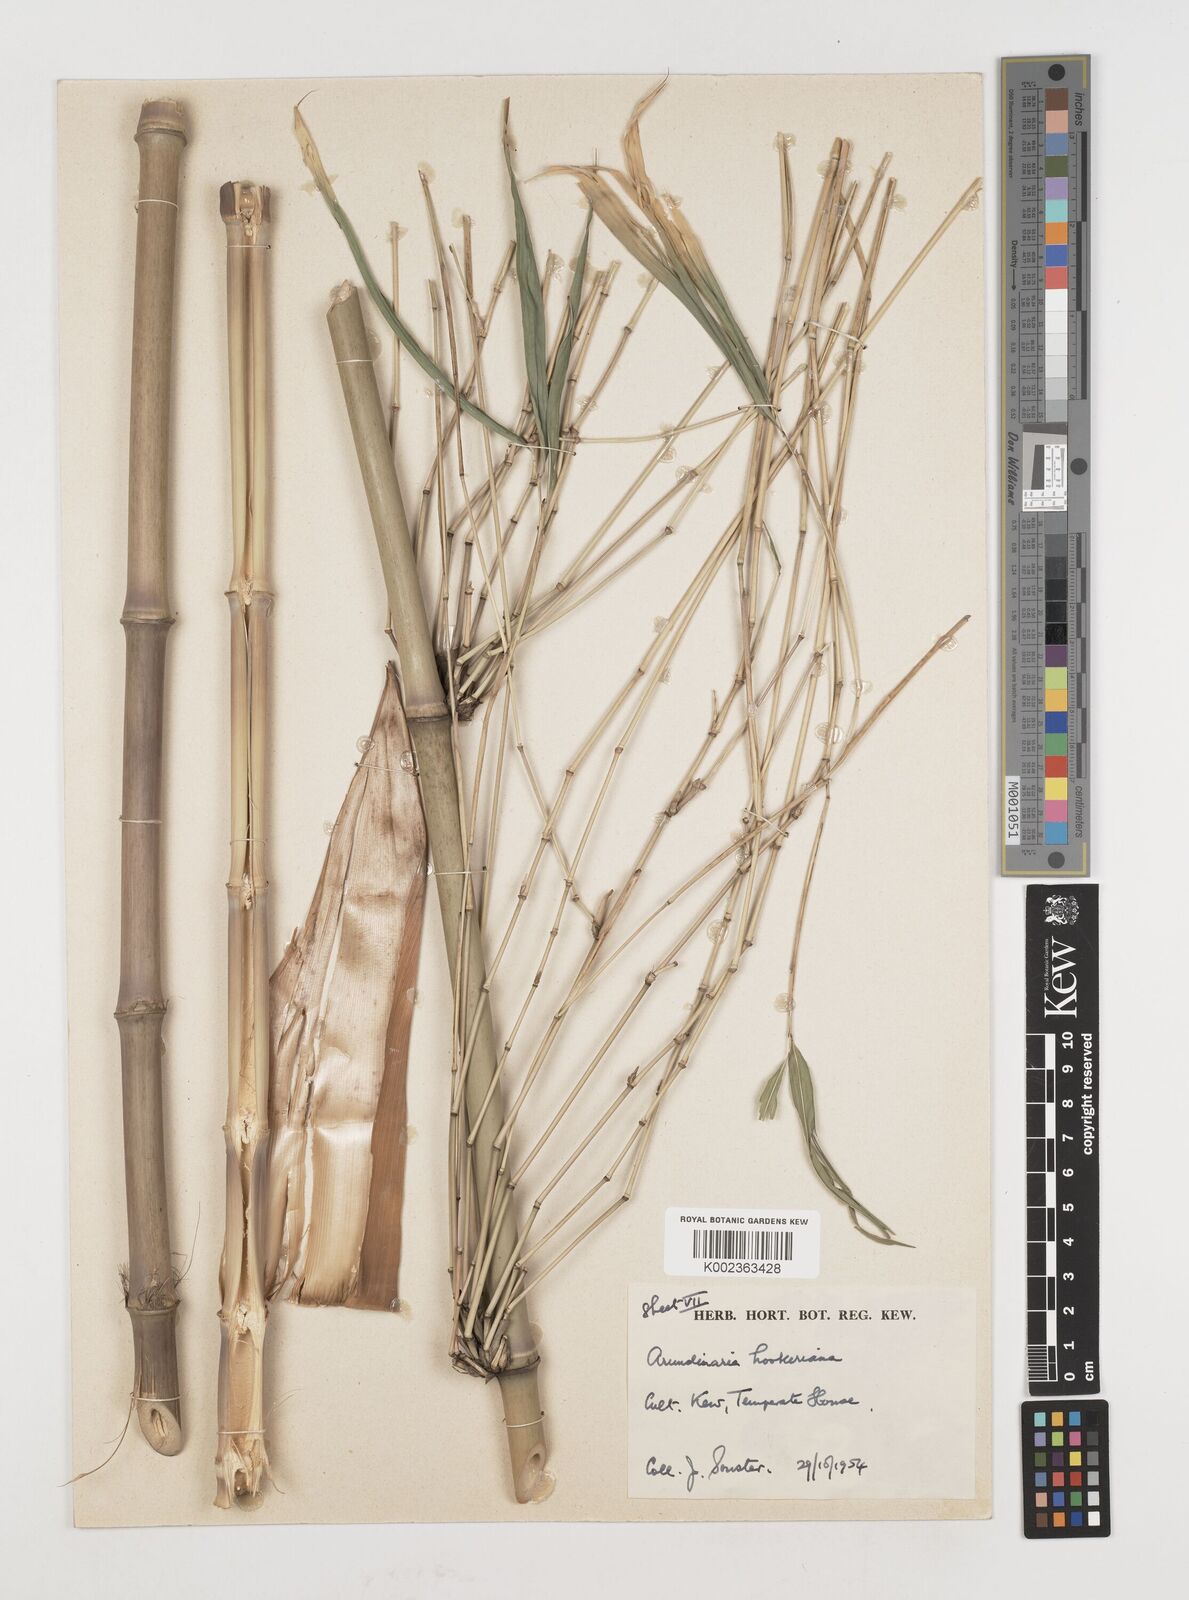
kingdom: Plantae
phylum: Tracheophyta
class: Liliopsida
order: Poales
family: Poaceae
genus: Himalayacalamus
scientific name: Himalayacalamus hookerianus
